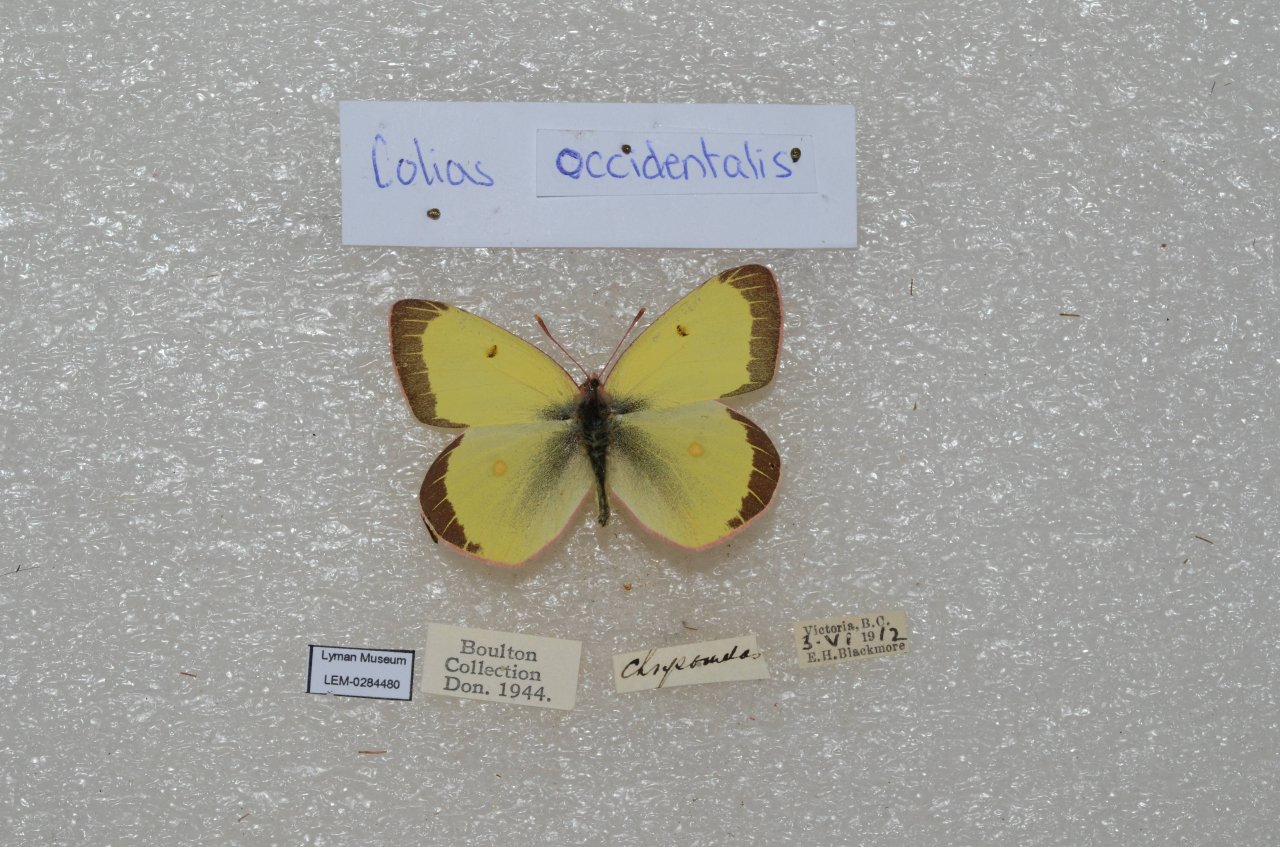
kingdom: Animalia
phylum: Arthropoda
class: Insecta
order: Lepidoptera
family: Pieridae
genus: Colias
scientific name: Colias occidentalis
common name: Western Sulphur
